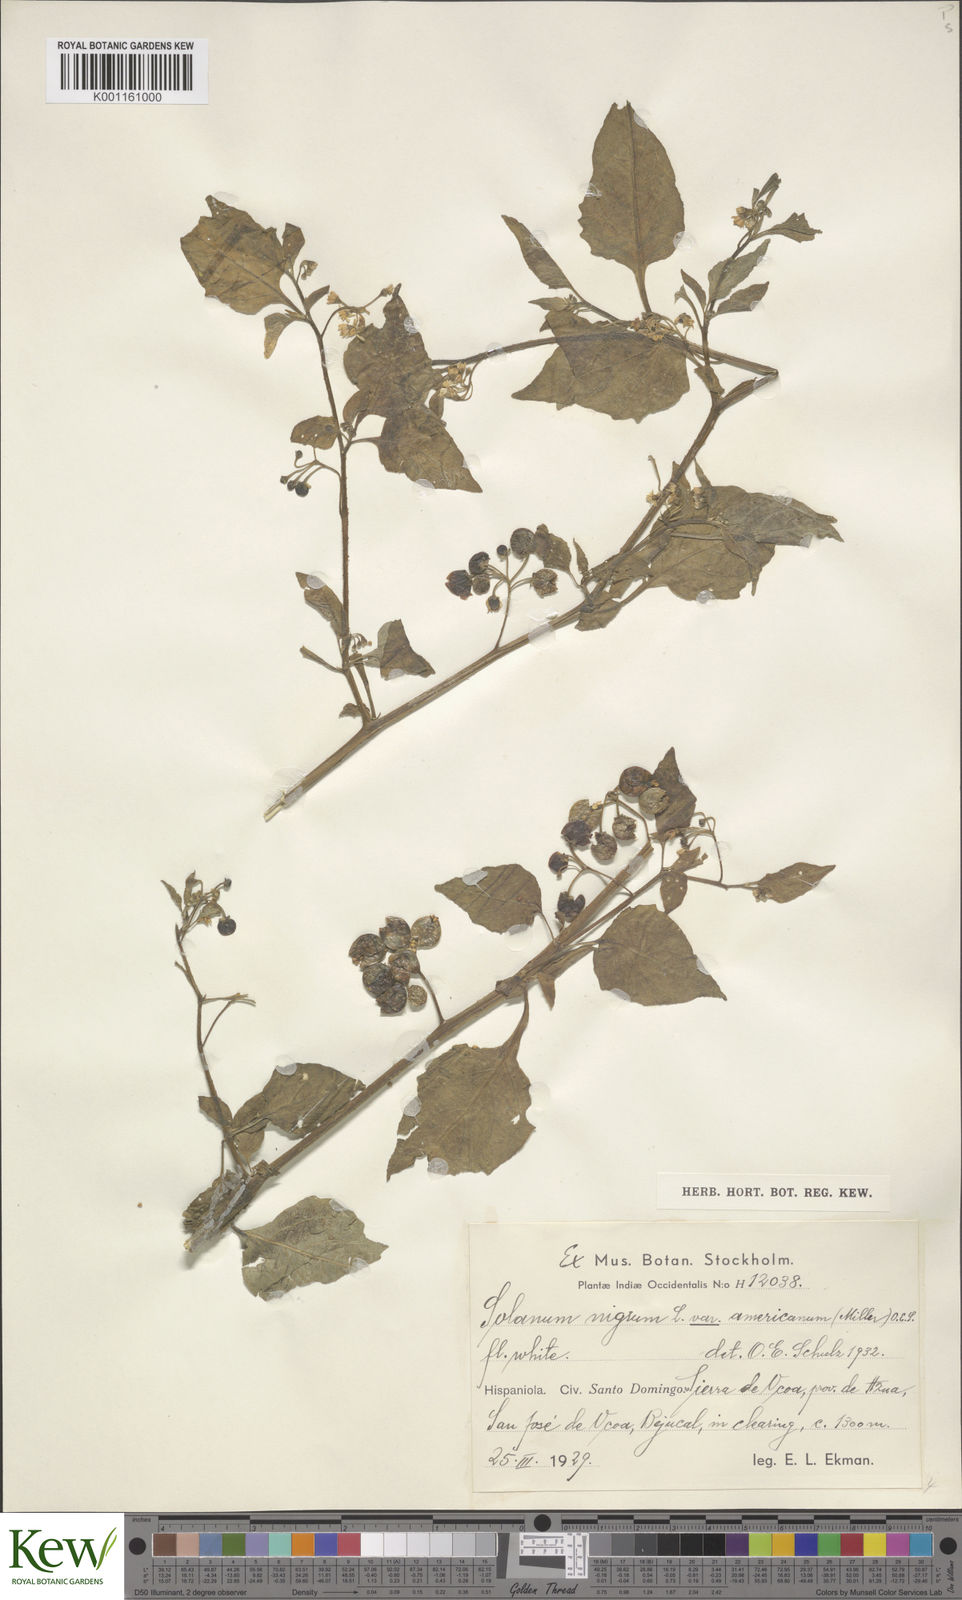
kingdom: Plantae
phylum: Tracheophyta
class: Magnoliopsida
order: Solanales
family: Solanaceae
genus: Solanum
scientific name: Solanum americanum
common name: American black nightshade
